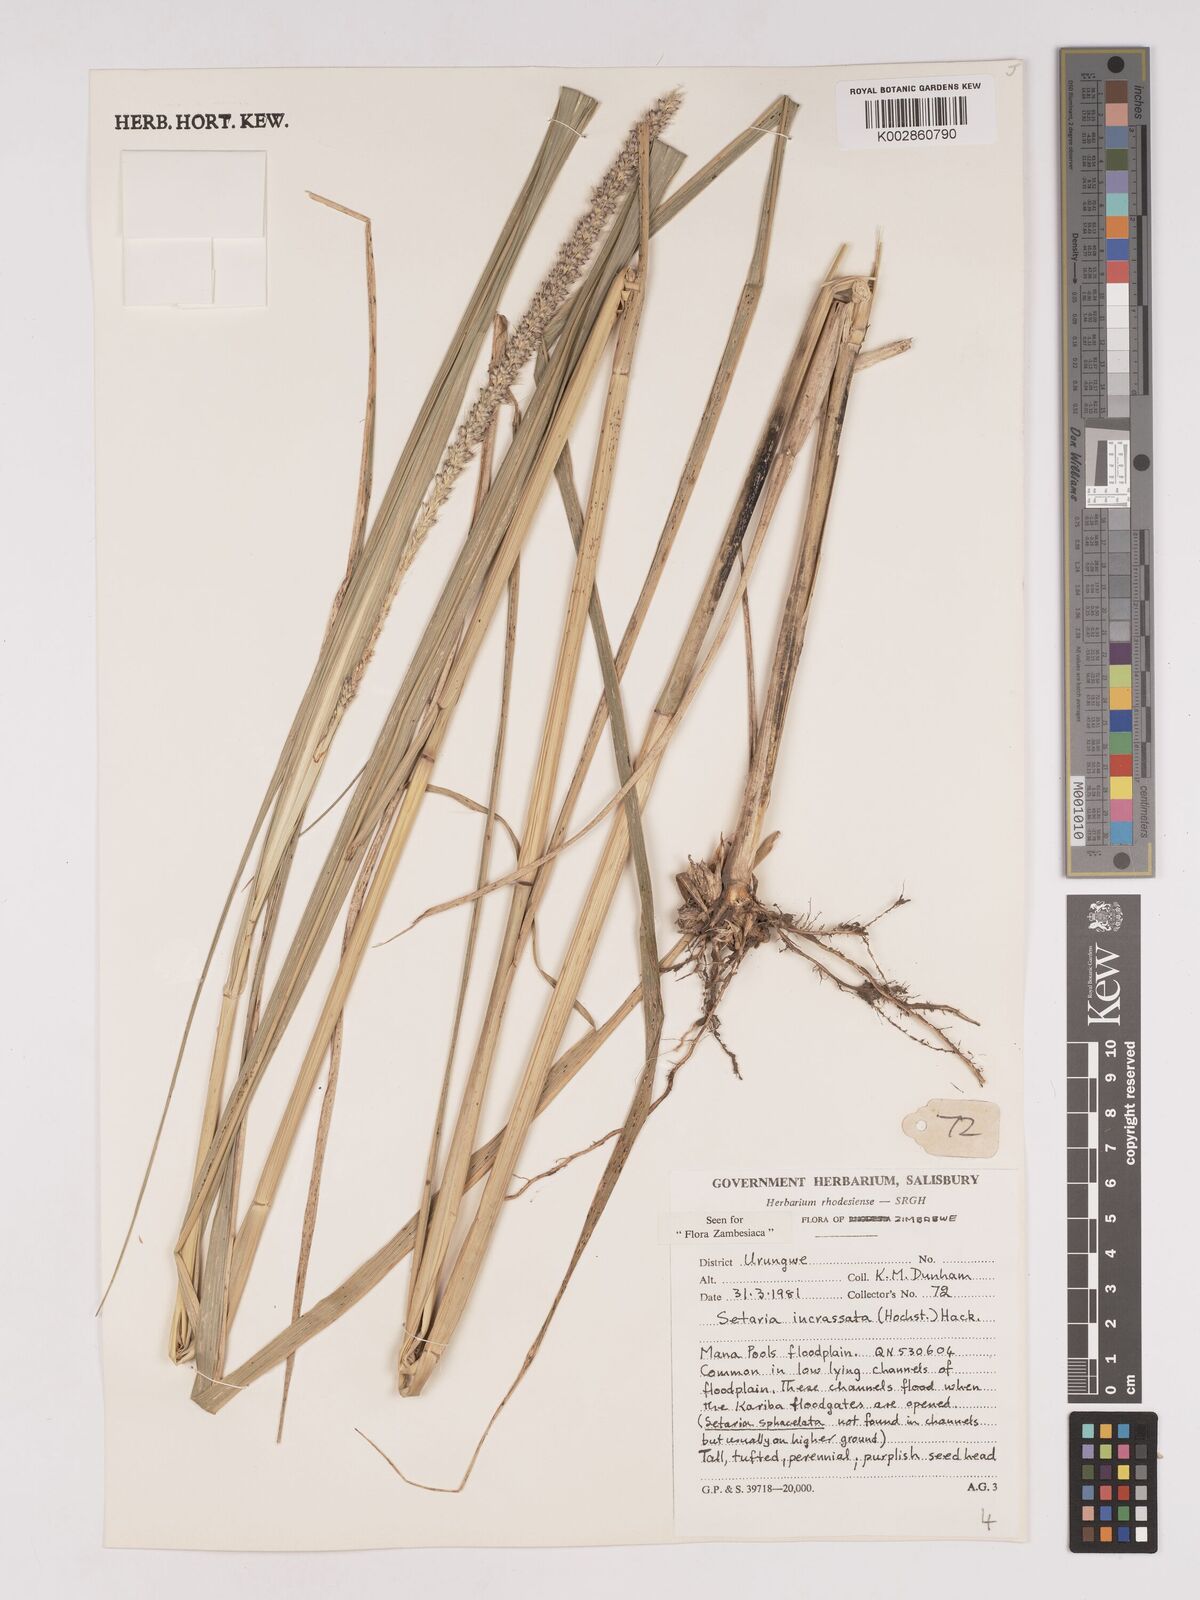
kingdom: Plantae
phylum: Tracheophyta
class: Liliopsida
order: Poales
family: Poaceae
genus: Setaria
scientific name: Setaria incrassata
